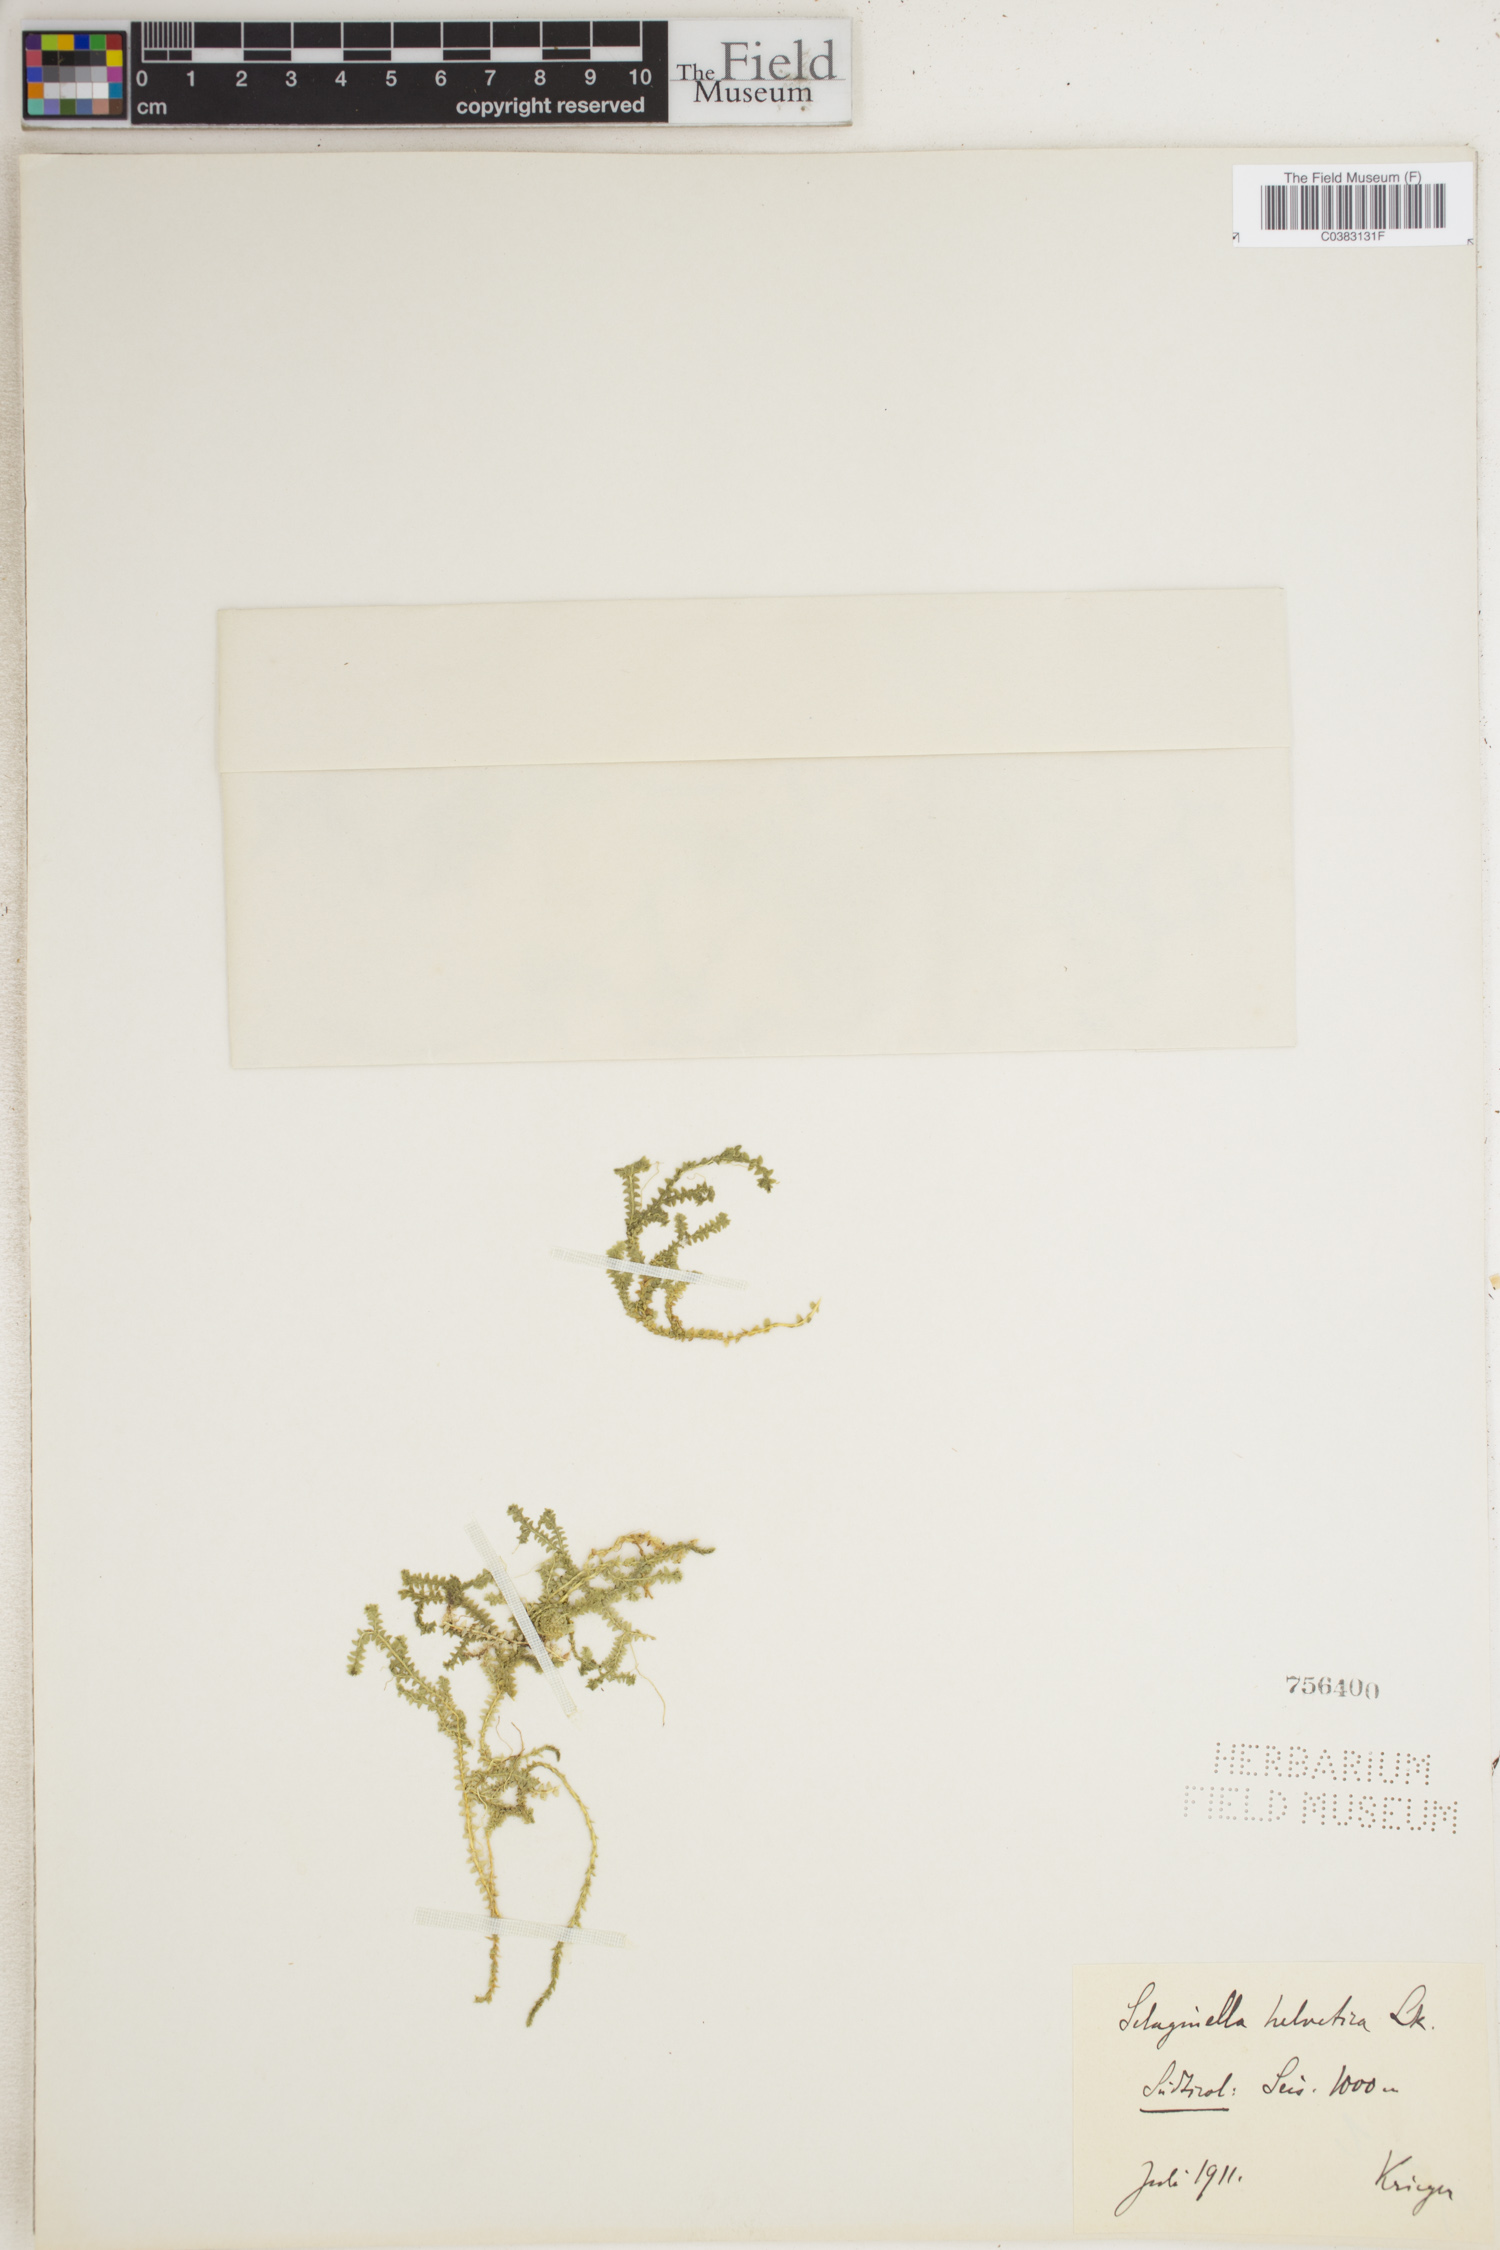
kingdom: Plantae
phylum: Tracheophyta
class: Lycopodiopsida
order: Selaginellales
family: Selaginellaceae
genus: Selaginella
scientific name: Selaginella helvetica
